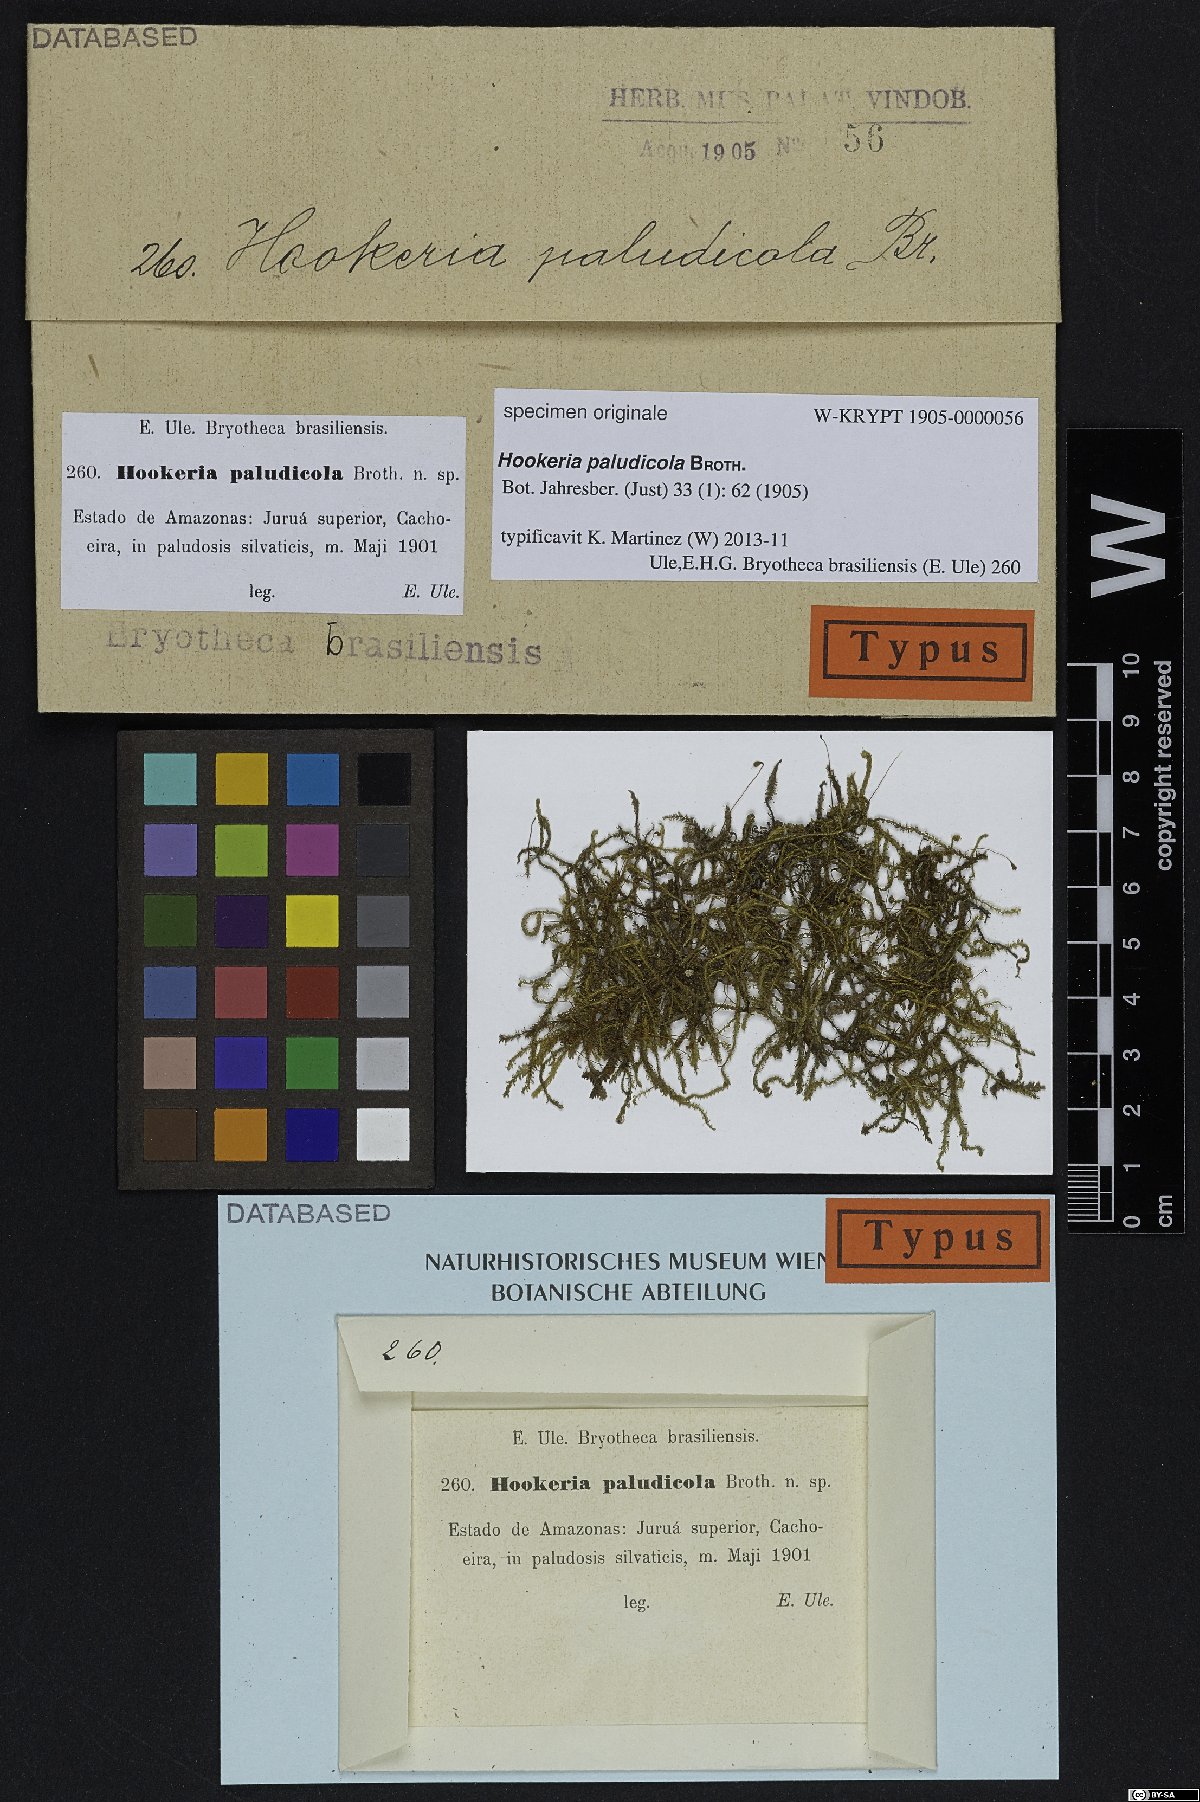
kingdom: Plantae
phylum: Bryophyta
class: Bryopsida
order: Hookeriales
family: Hookeriaceae
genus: Hookeria
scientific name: Hookeria
